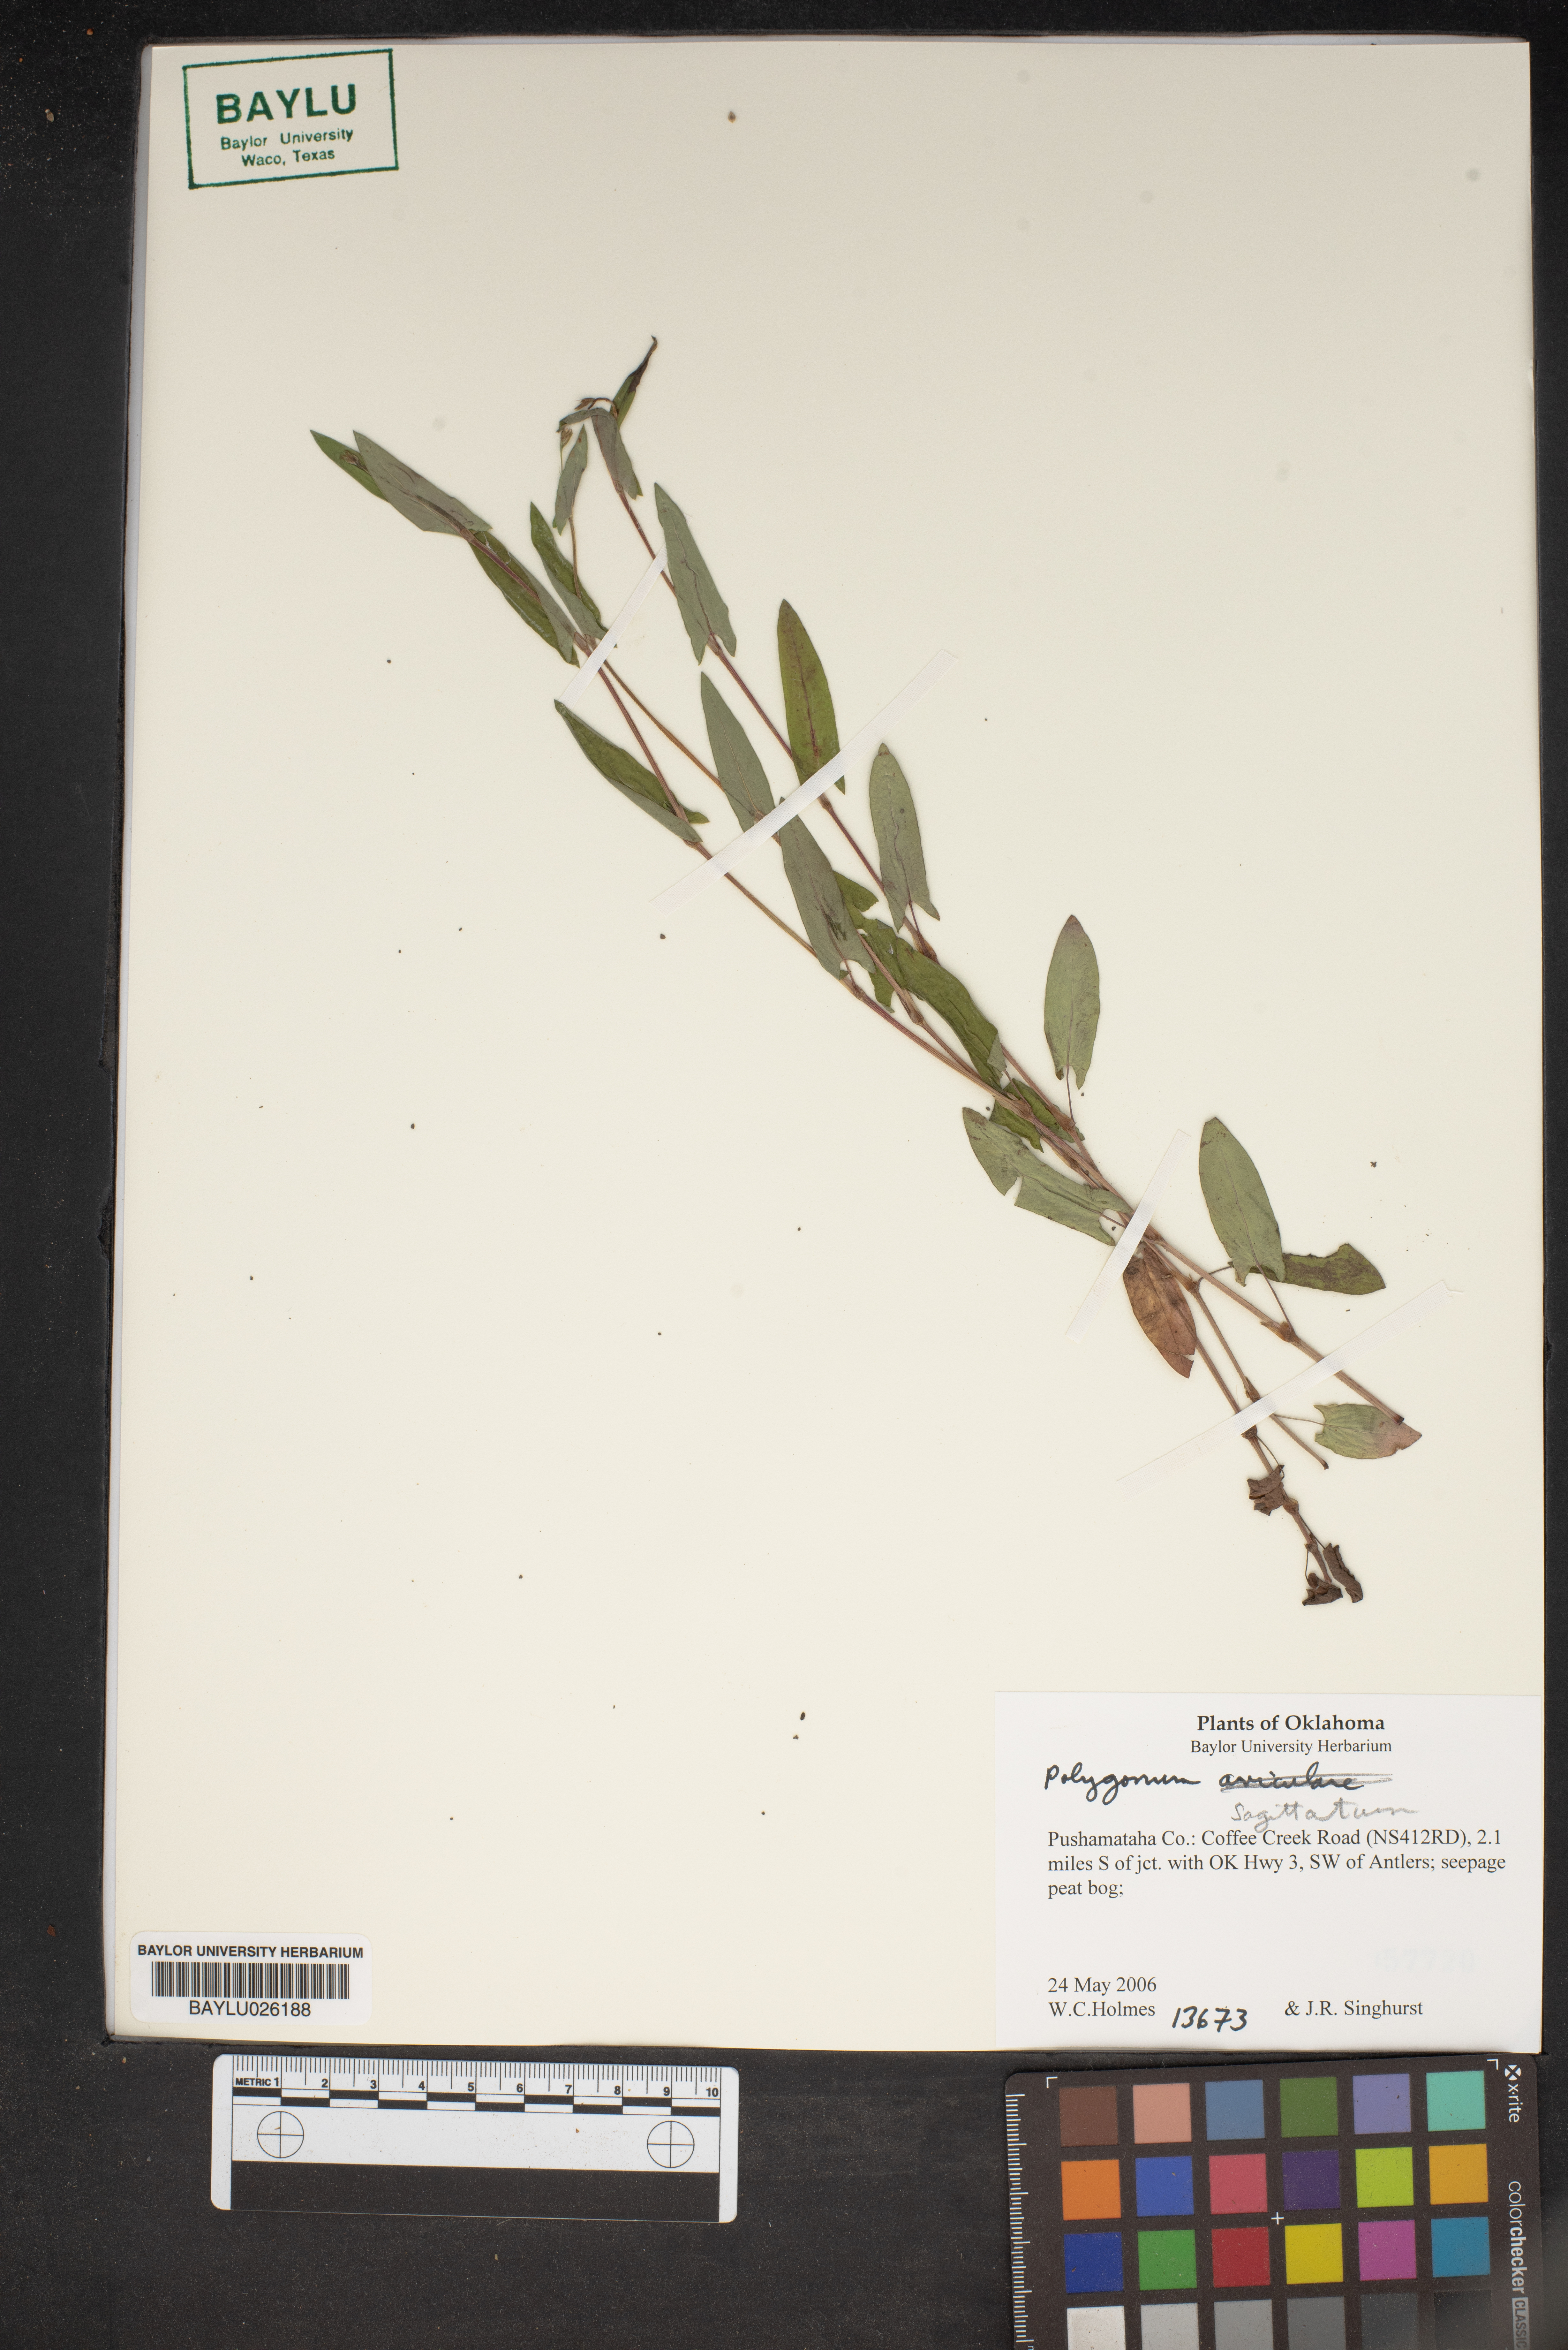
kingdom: Plantae
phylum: Tracheophyta
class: Magnoliopsida
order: Caryophyllales
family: Polygonaceae
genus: Persicaria
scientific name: Persicaria sagittata
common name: American tearthumb
